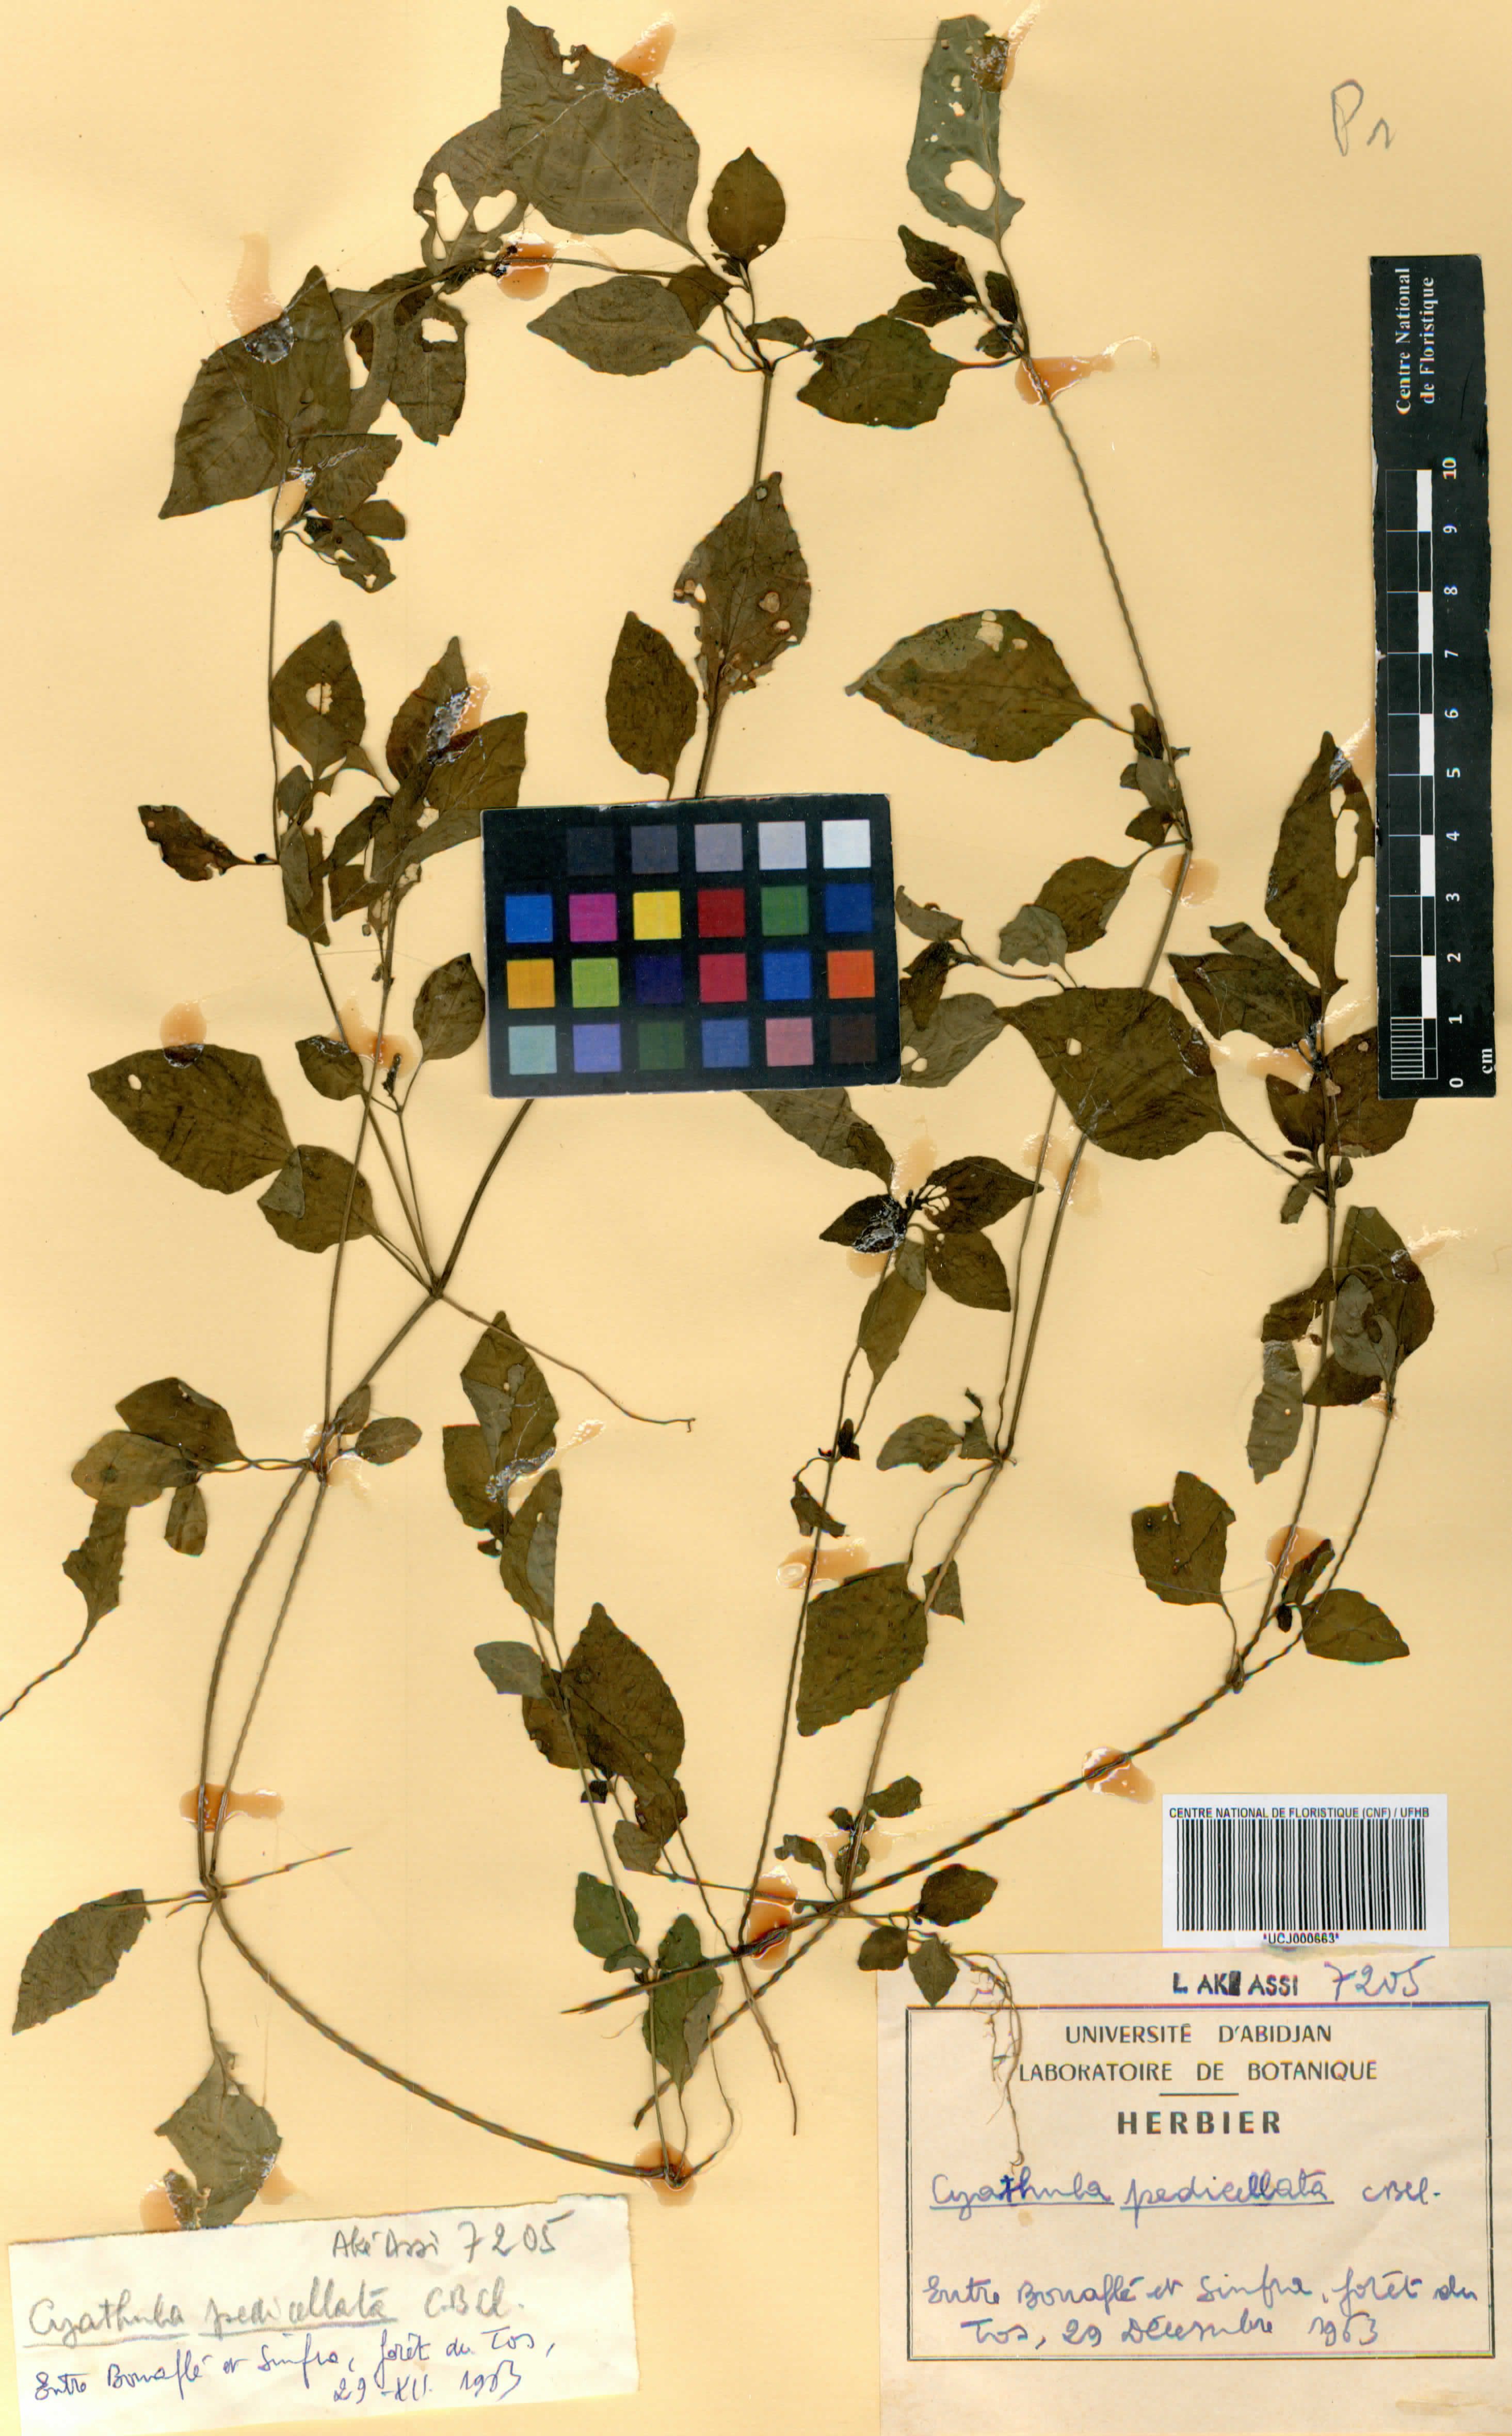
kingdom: Plantae
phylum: Tracheophyta
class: Magnoliopsida
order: Caryophyllales
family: Amaranthaceae
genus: Cyathula
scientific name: Cyathula prostrata
